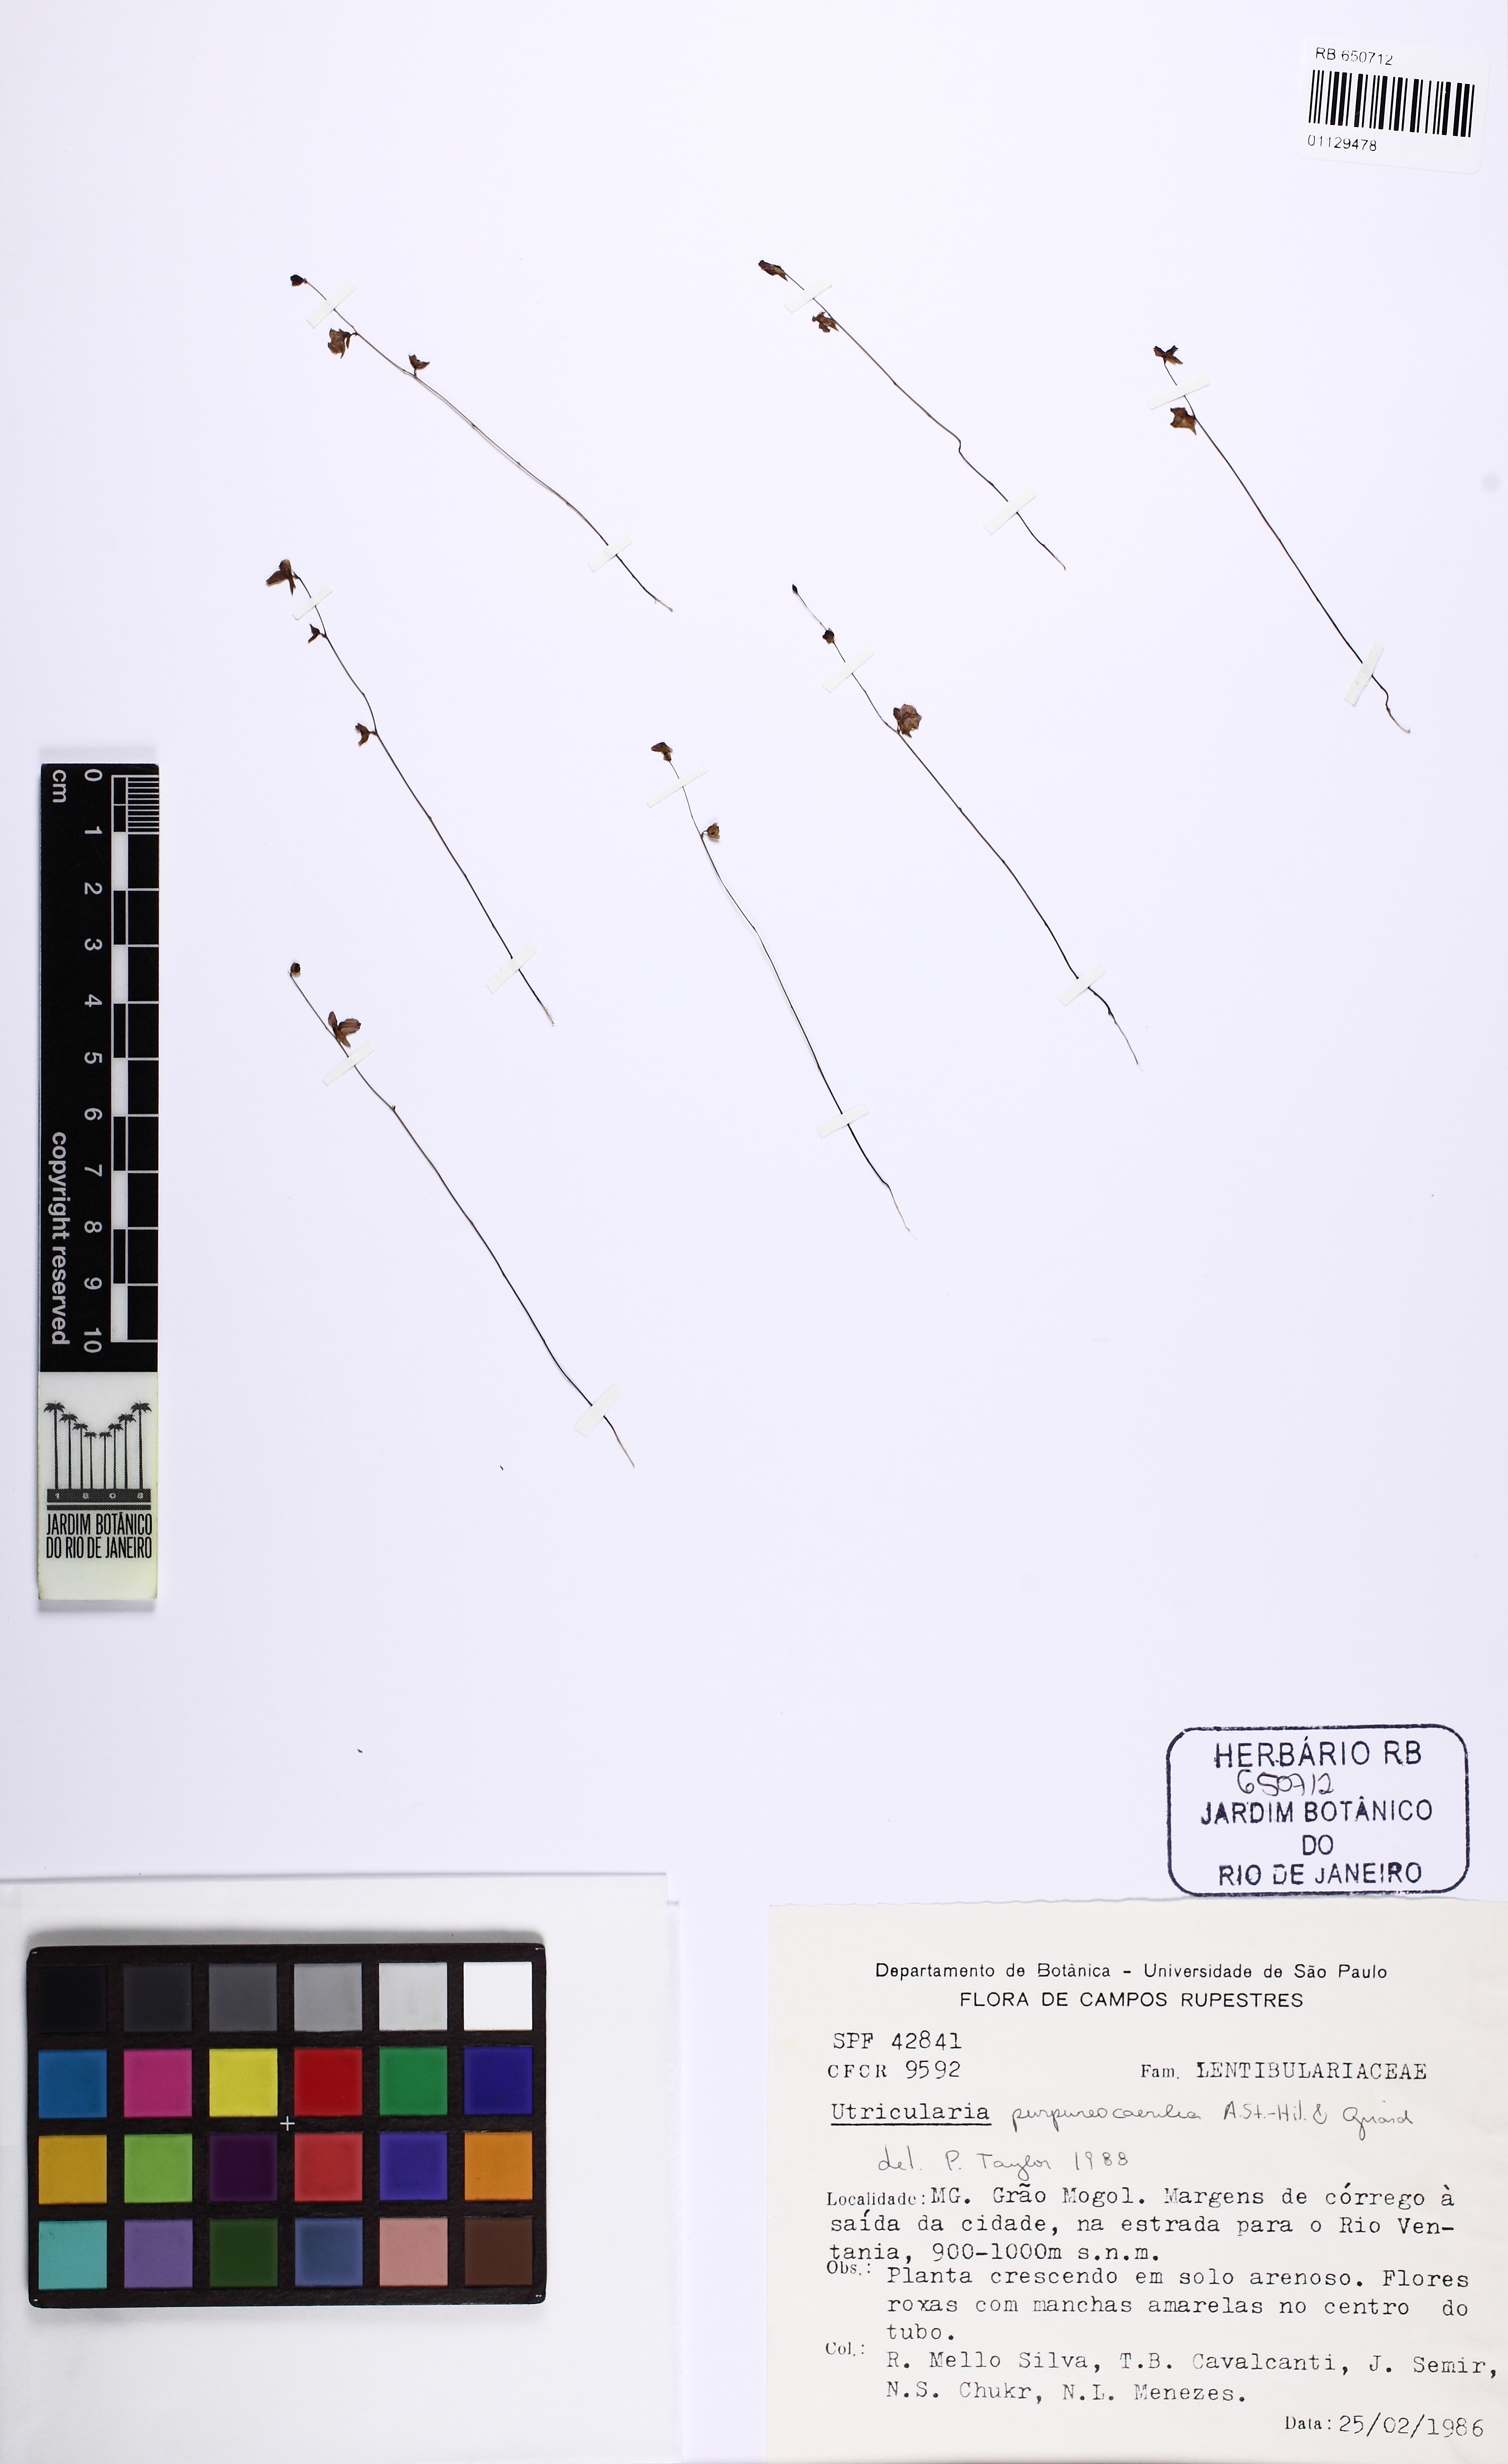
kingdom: Plantae
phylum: Tracheophyta
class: Magnoliopsida
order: Lamiales
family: Lentibulariaceae
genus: Utricularia
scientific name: Utricularia purpureocaerulea
